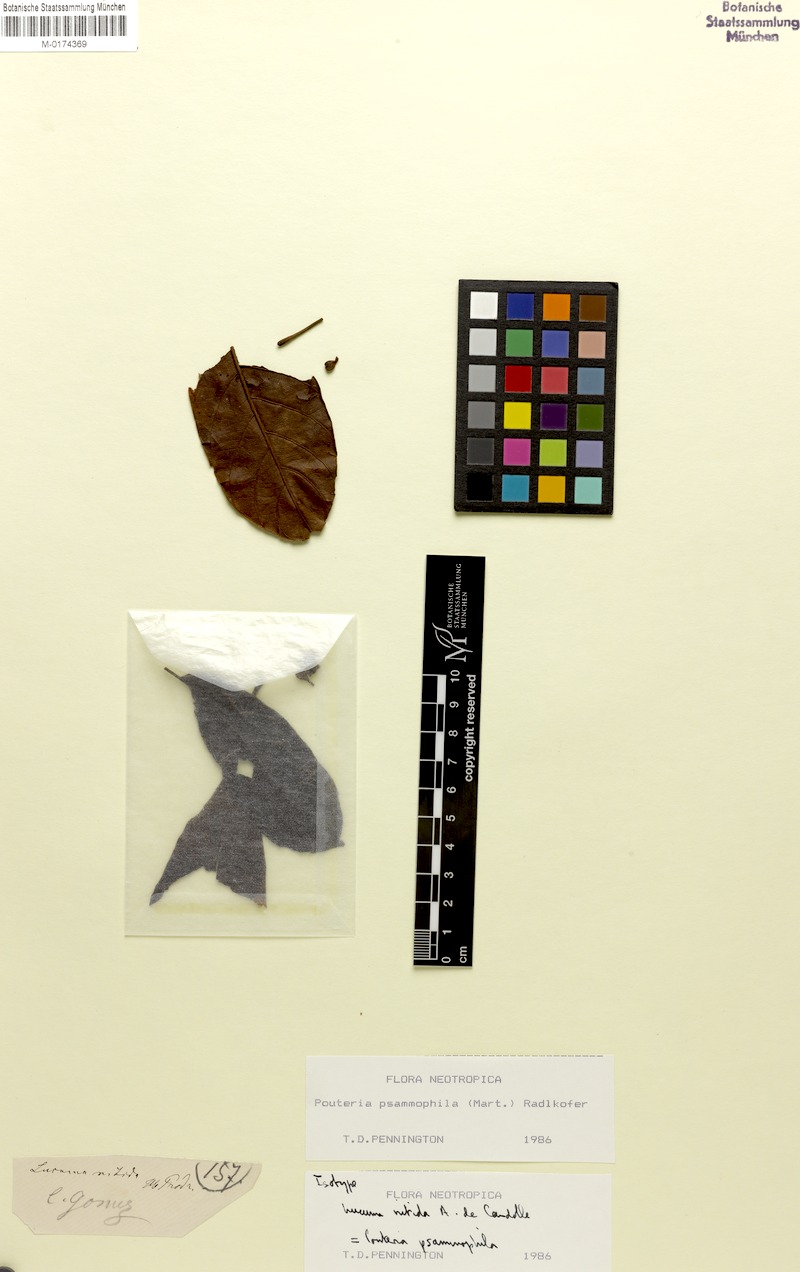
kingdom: Plantae
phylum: Tracheophyta
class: Magnoliopsida
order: Ericales
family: Sapotaceae
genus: Pouteria
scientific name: Pouteria psammophila
